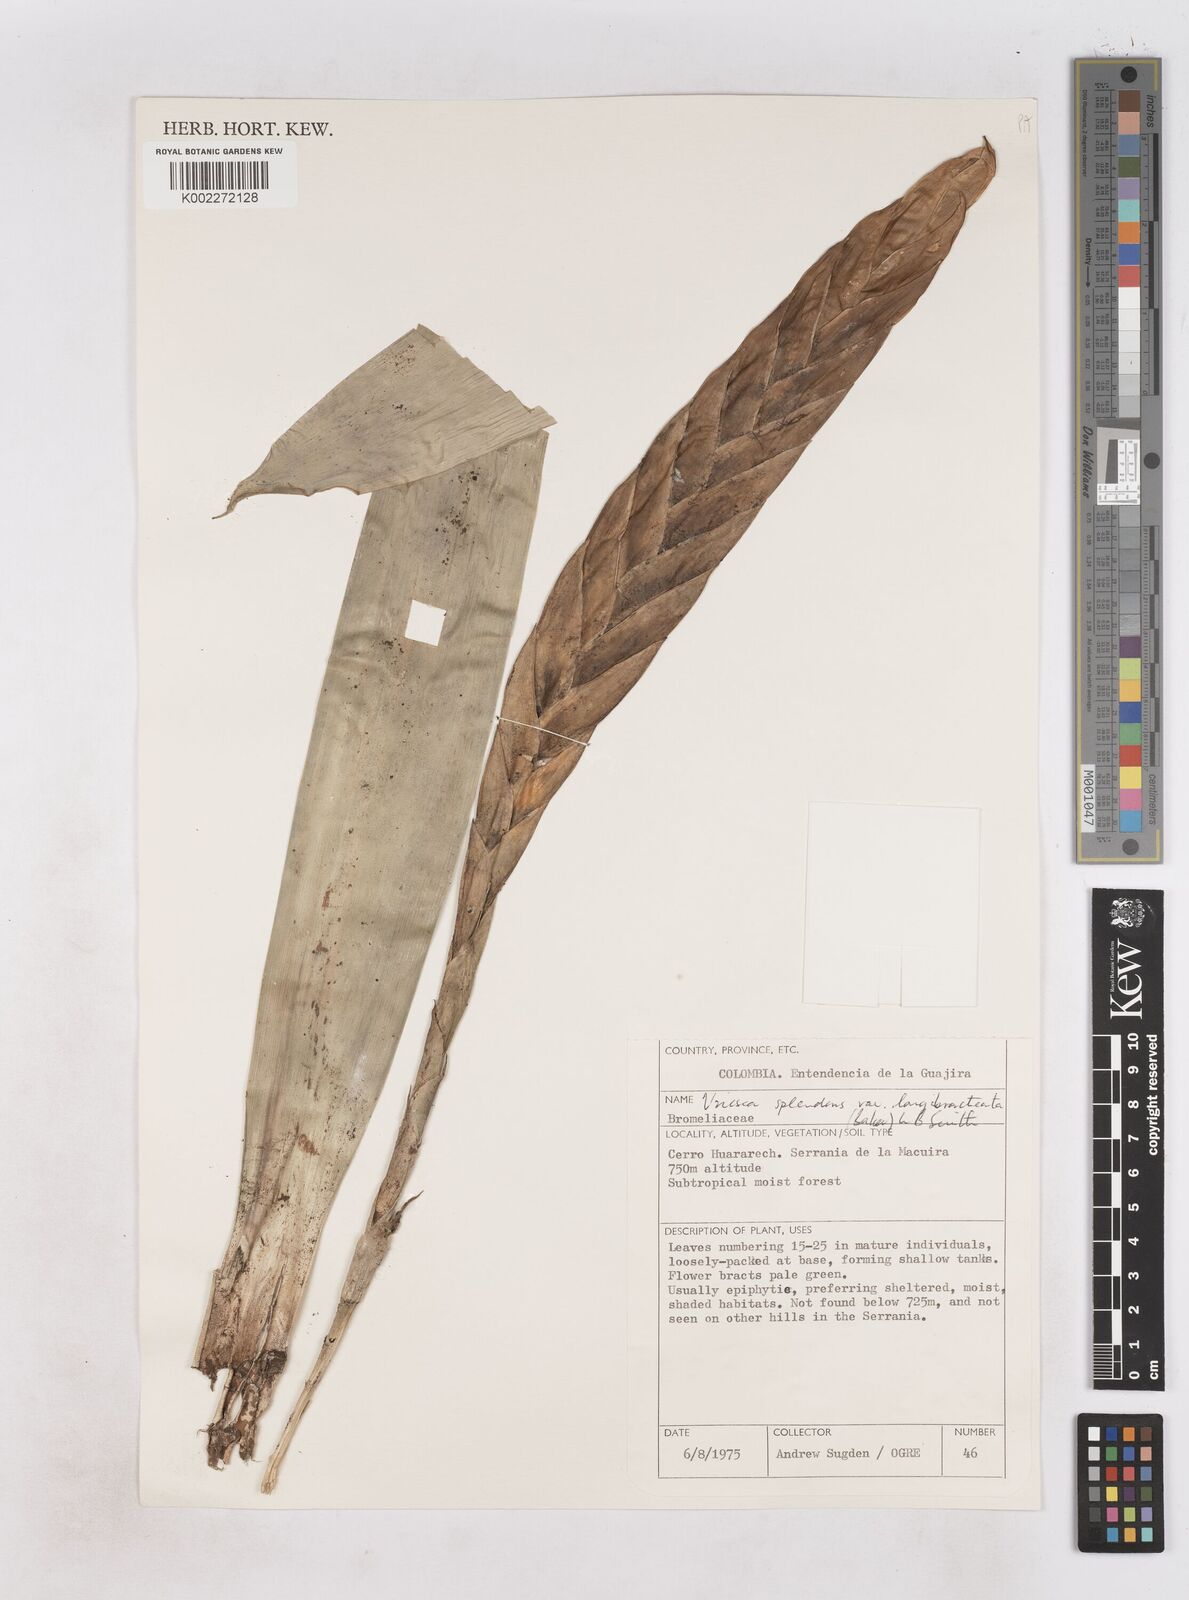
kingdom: Plantae
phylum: Tracheophyta
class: Liliopsida
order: Poales
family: Bromeliaceae
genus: Lutheria
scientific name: Lutheria splendens
